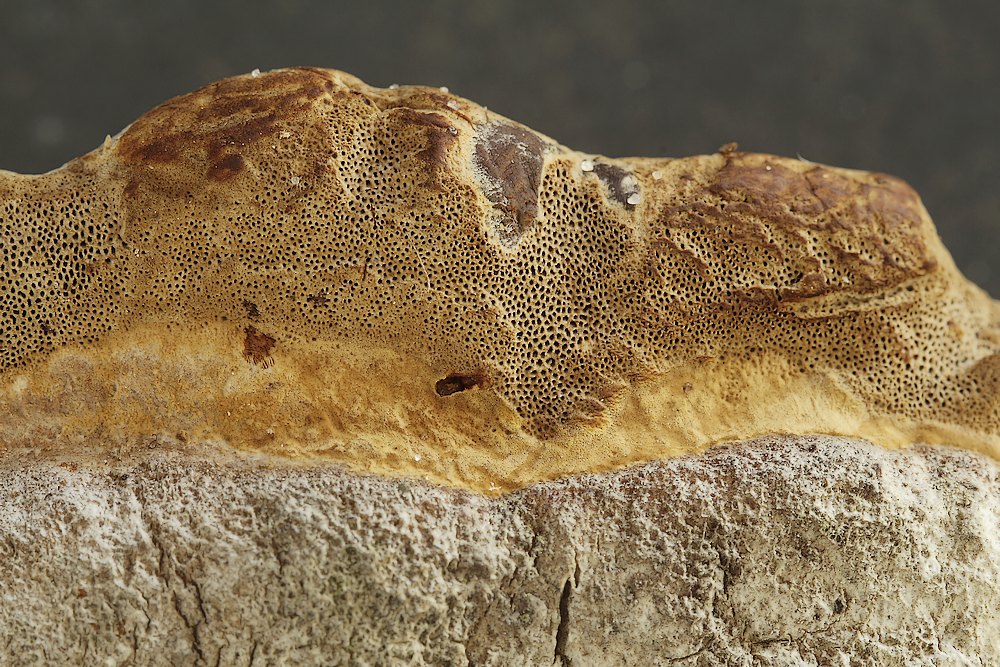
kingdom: Fungi
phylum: Basidiomycota
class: Agaricomycetes
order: Polyporales
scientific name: Polyporales
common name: poresvampordenen
